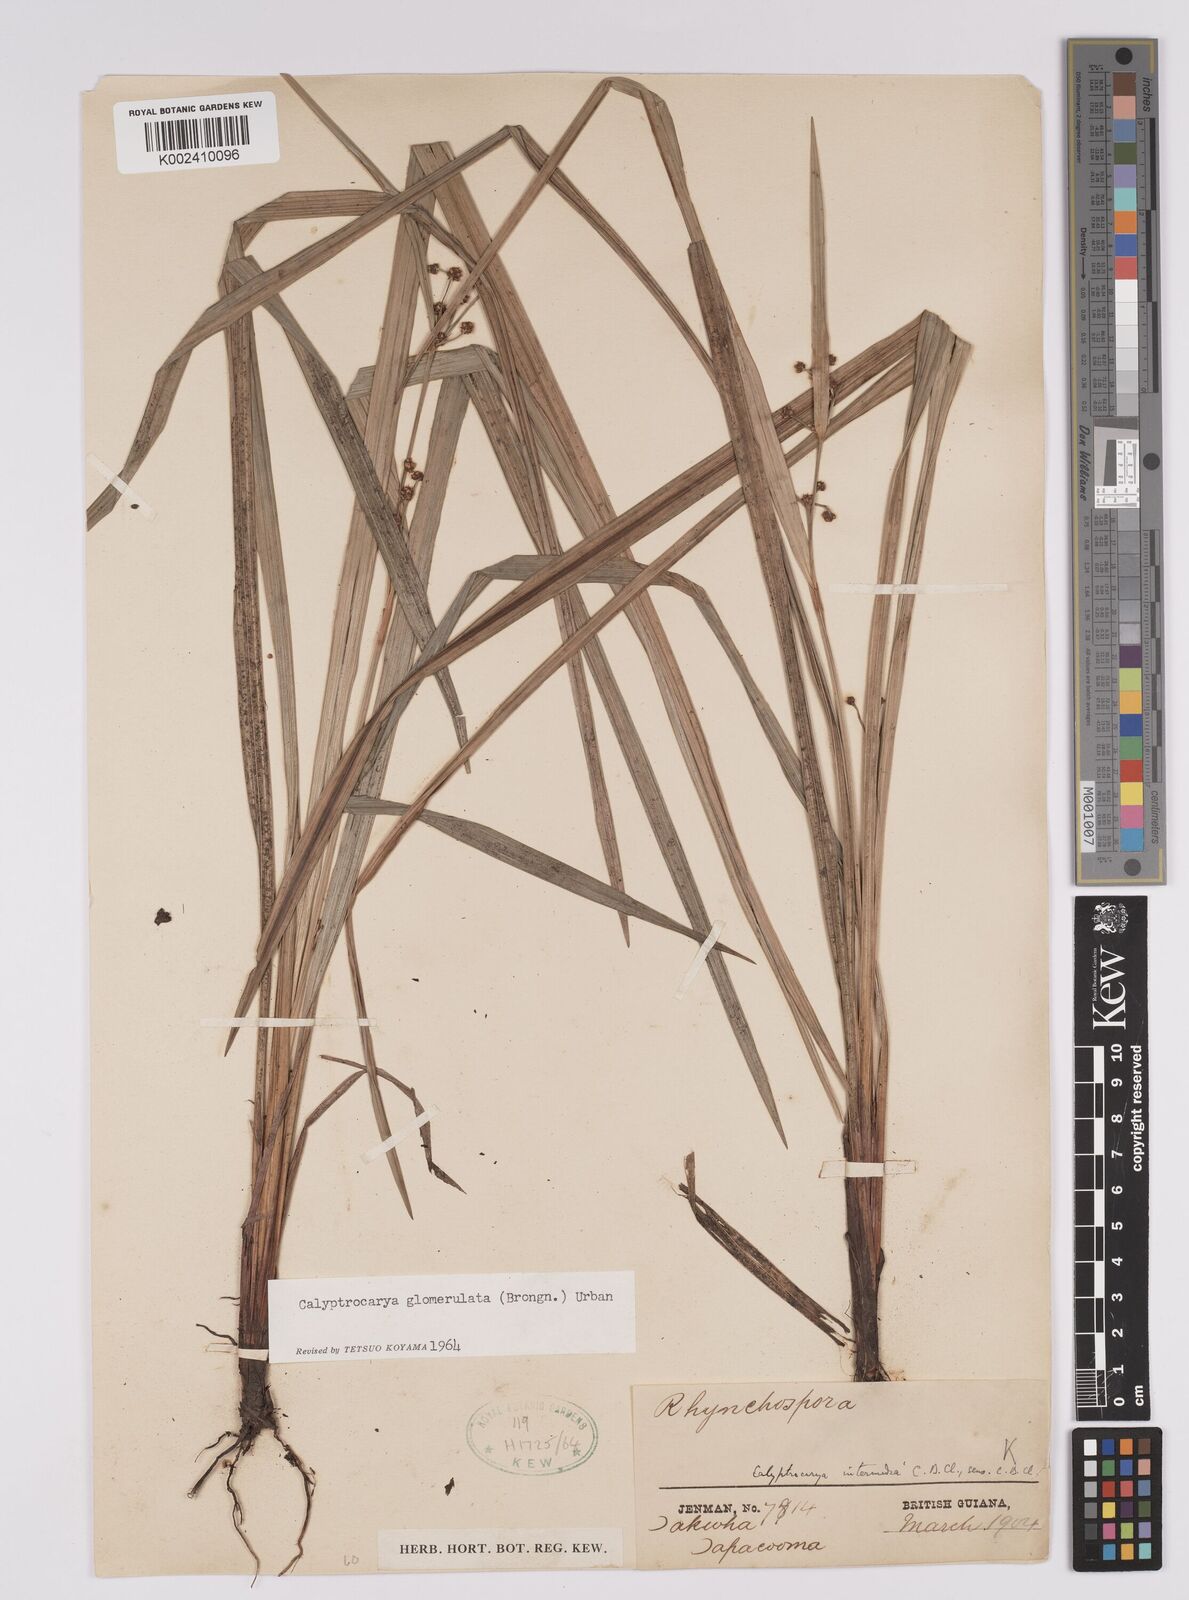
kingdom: Plantae
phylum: Tracheophyta
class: Liliopsida
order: Poales
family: Cyperaceae
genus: Calyptrocarya
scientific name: Calyptrocarya
